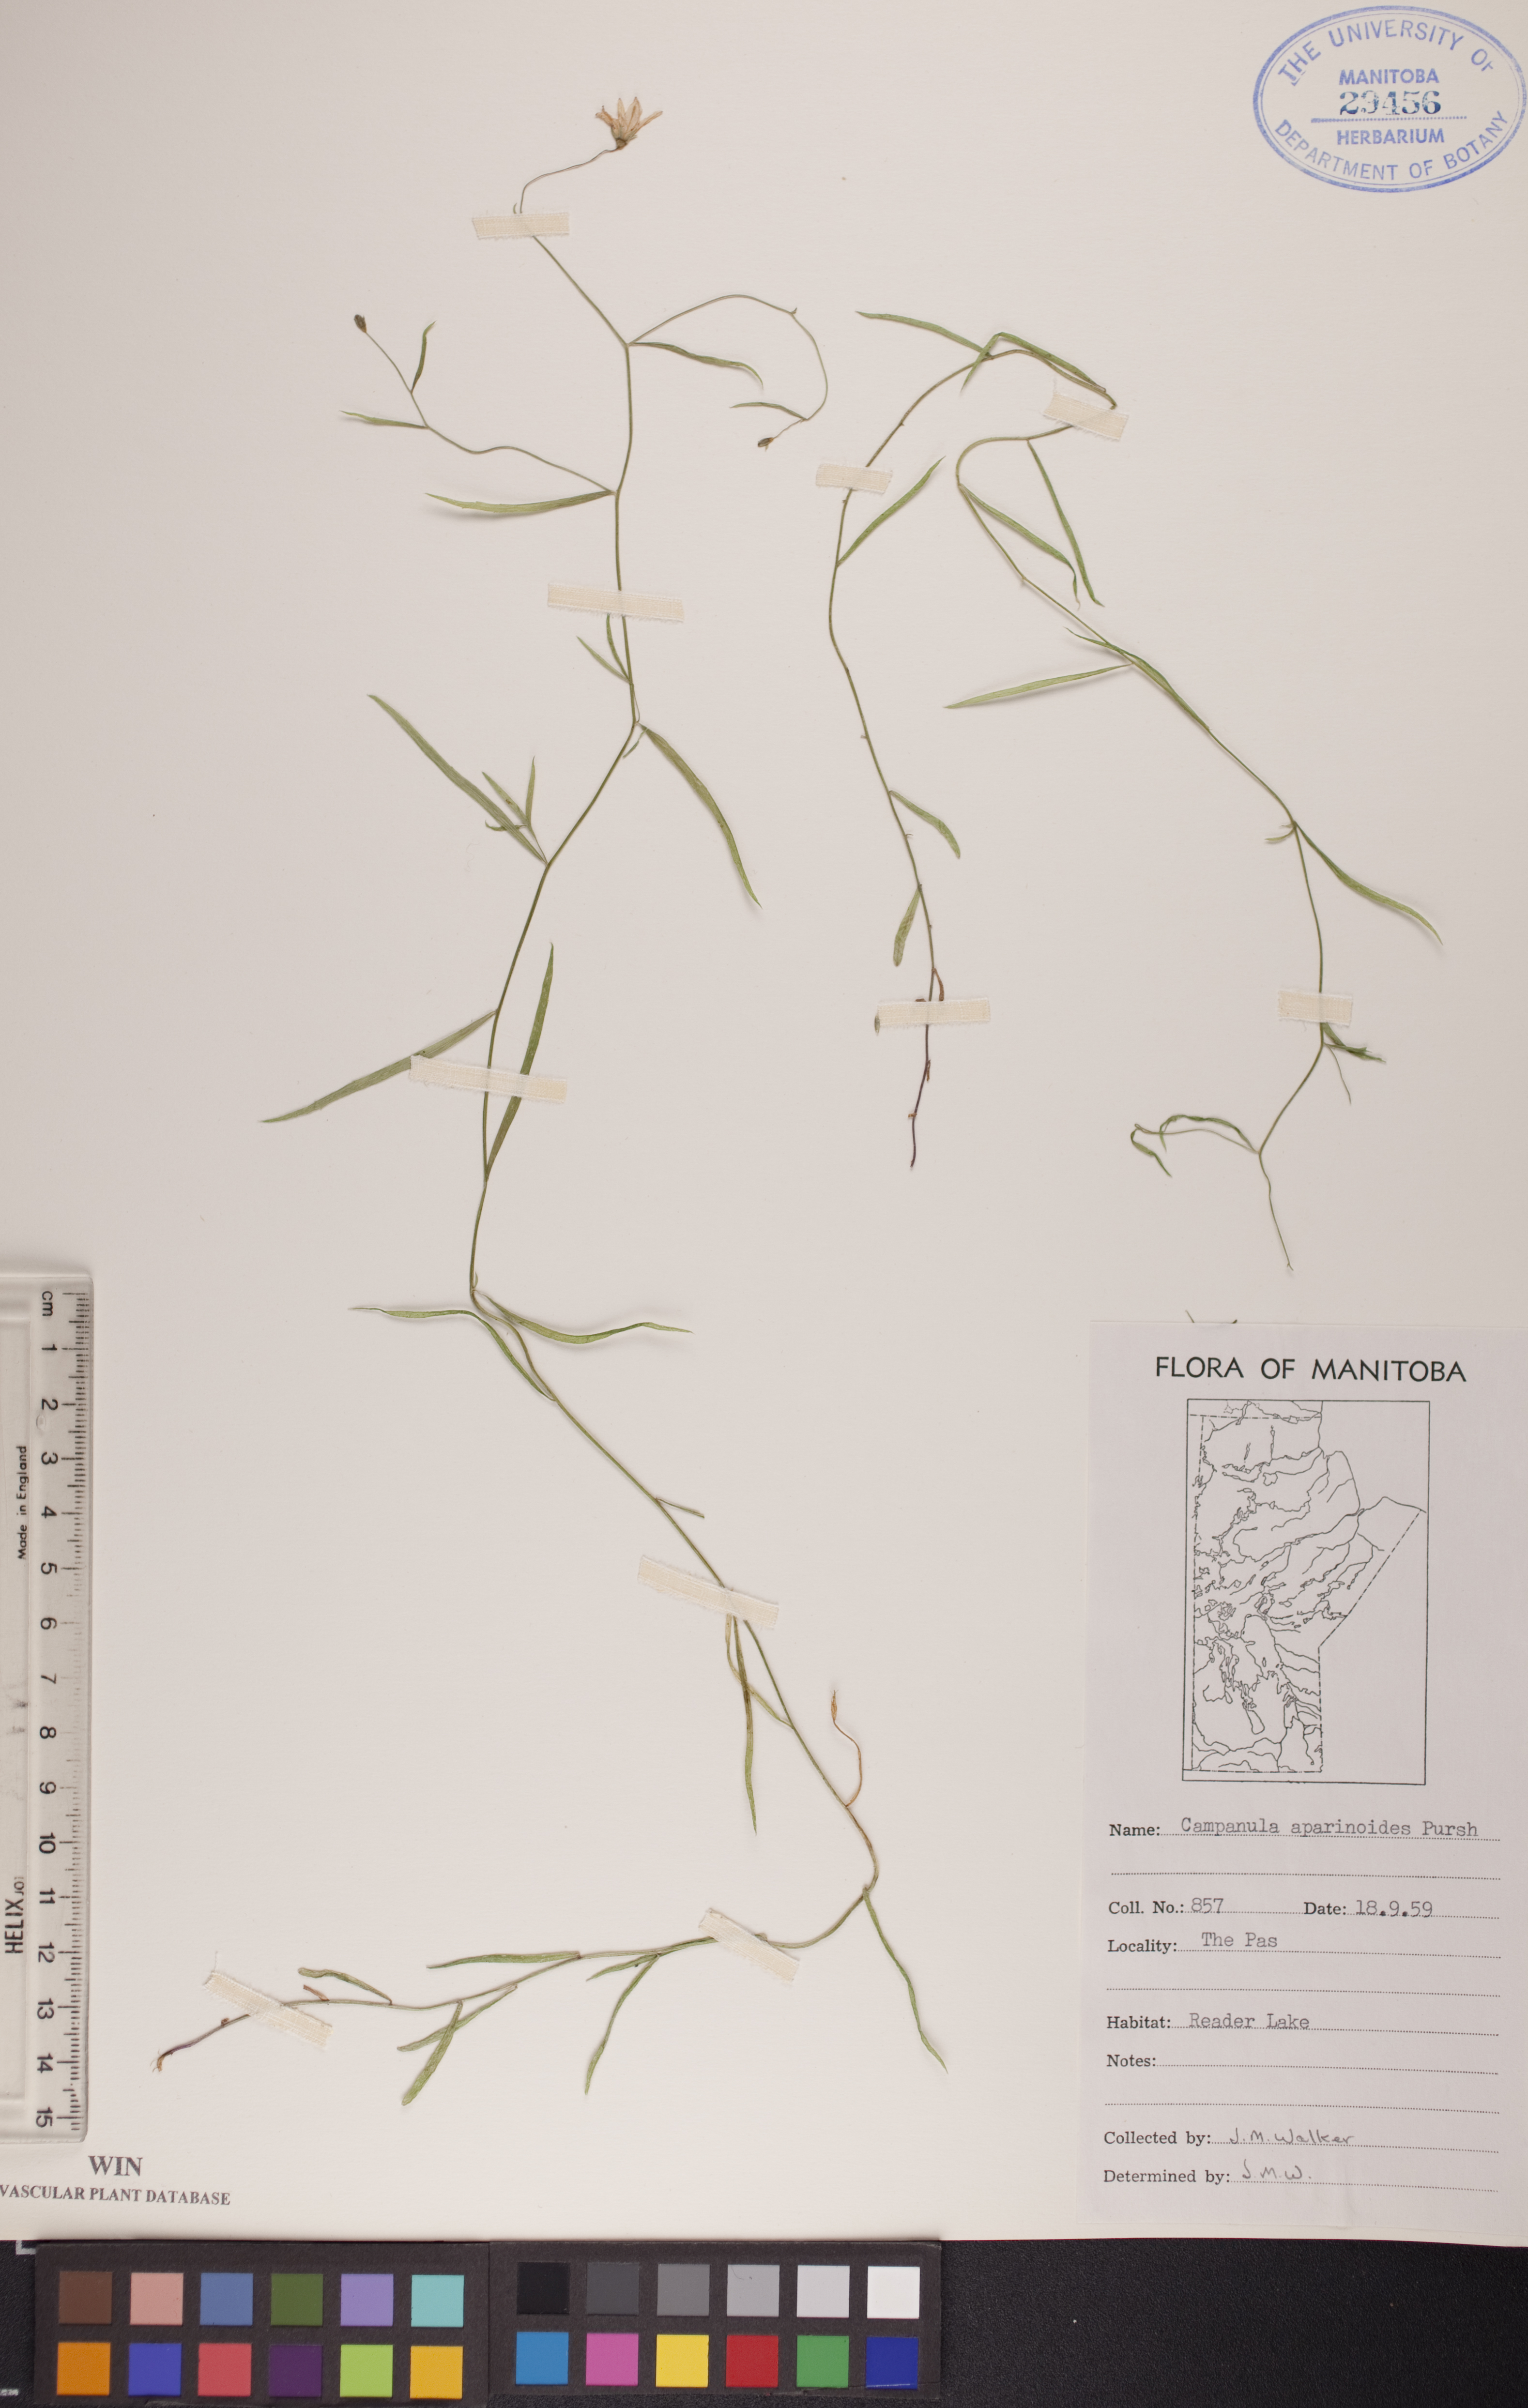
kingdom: Plantae
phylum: Tracheophyta
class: Magnoliopsida
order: Asterales
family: Campanulaceae
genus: Palustricodon
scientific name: Palustricodon aparinoides
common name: Bedstraw bellflower
